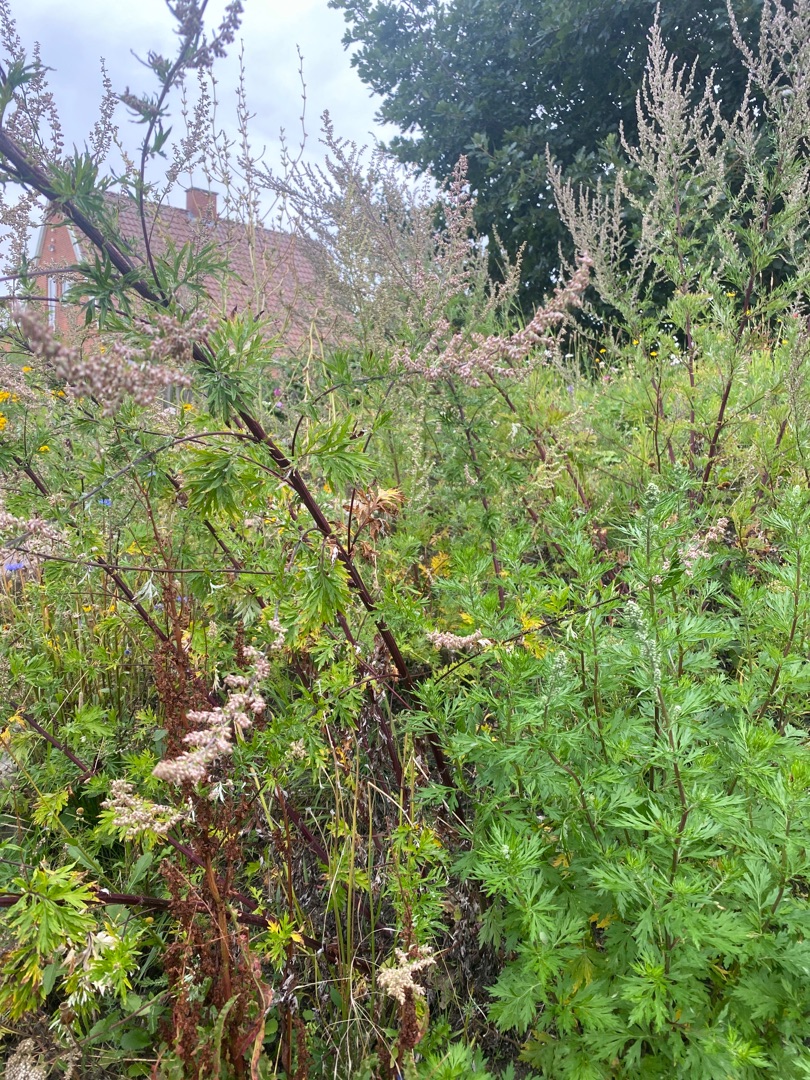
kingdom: Plantae
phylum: Tracheophyta
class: Magnoliopsida
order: Asterales
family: Asteraceae
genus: Artemisia
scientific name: Artemisia vulgaris
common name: Grå-bynke
